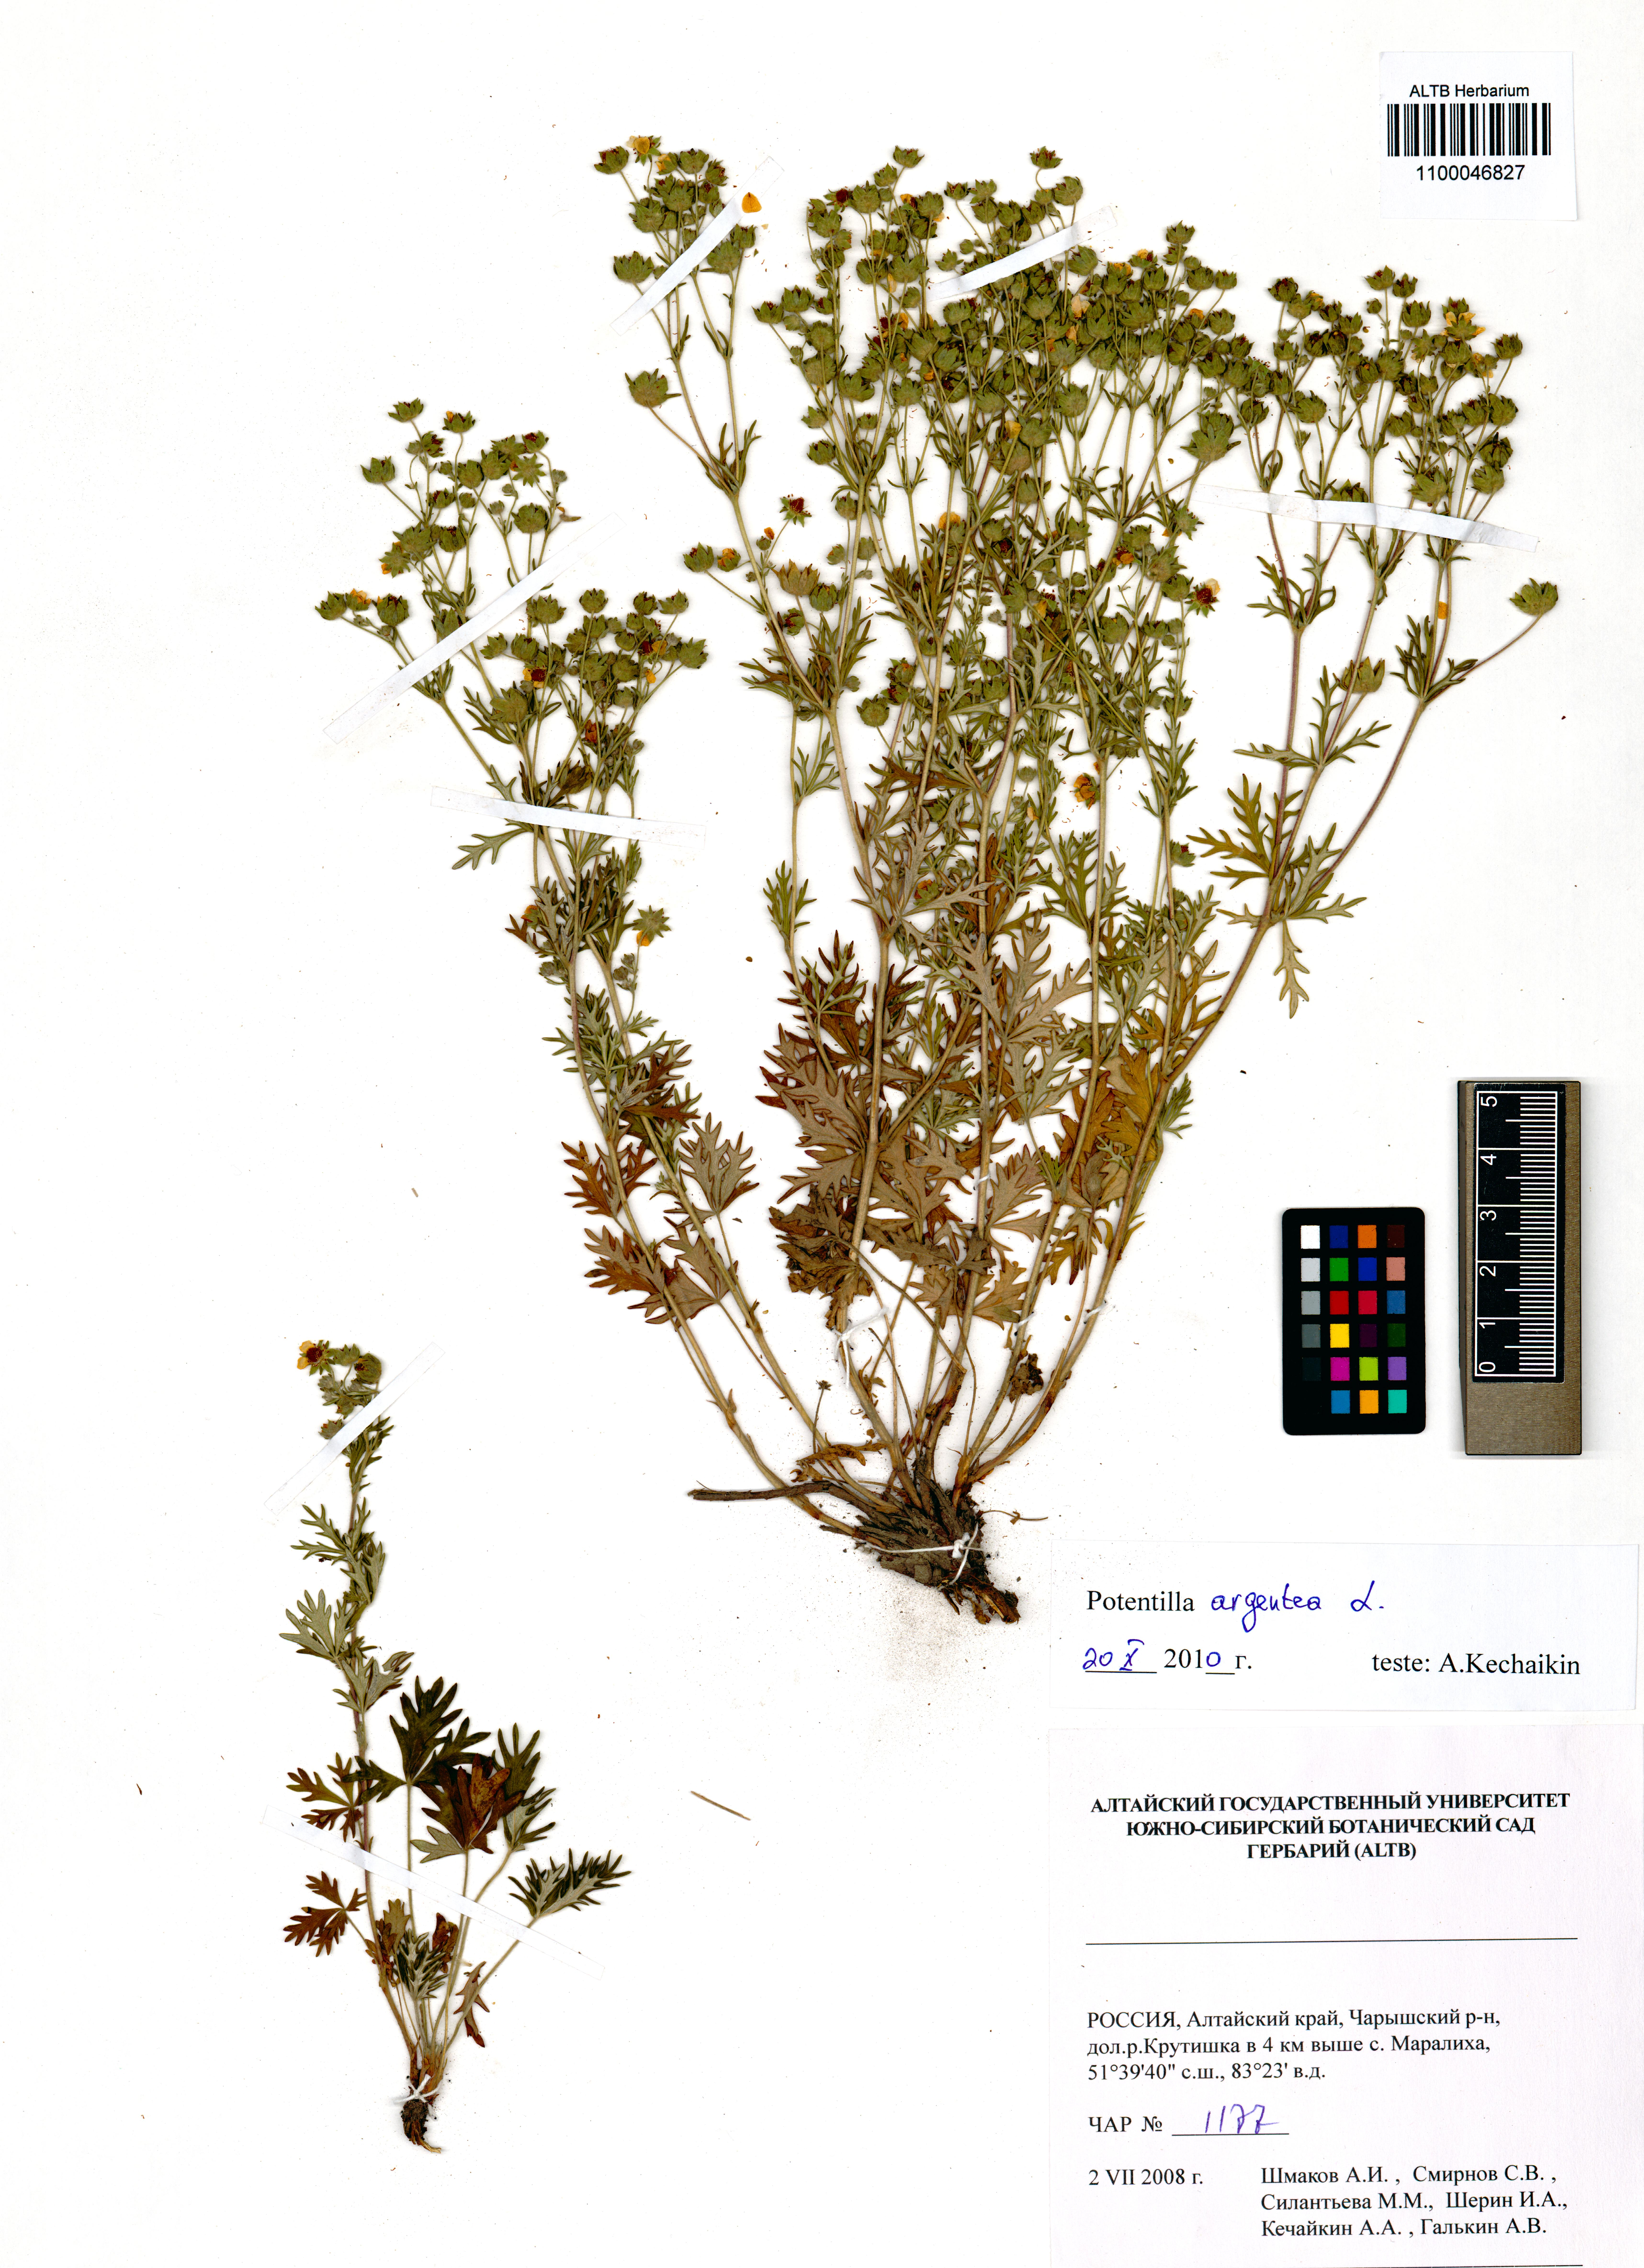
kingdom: Plantae
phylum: Tracheophyta
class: Magnoliopsida
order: Rosales
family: Rosaceae
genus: Potentilla
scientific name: Potentilla argentea
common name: Hoary cinquefoil
